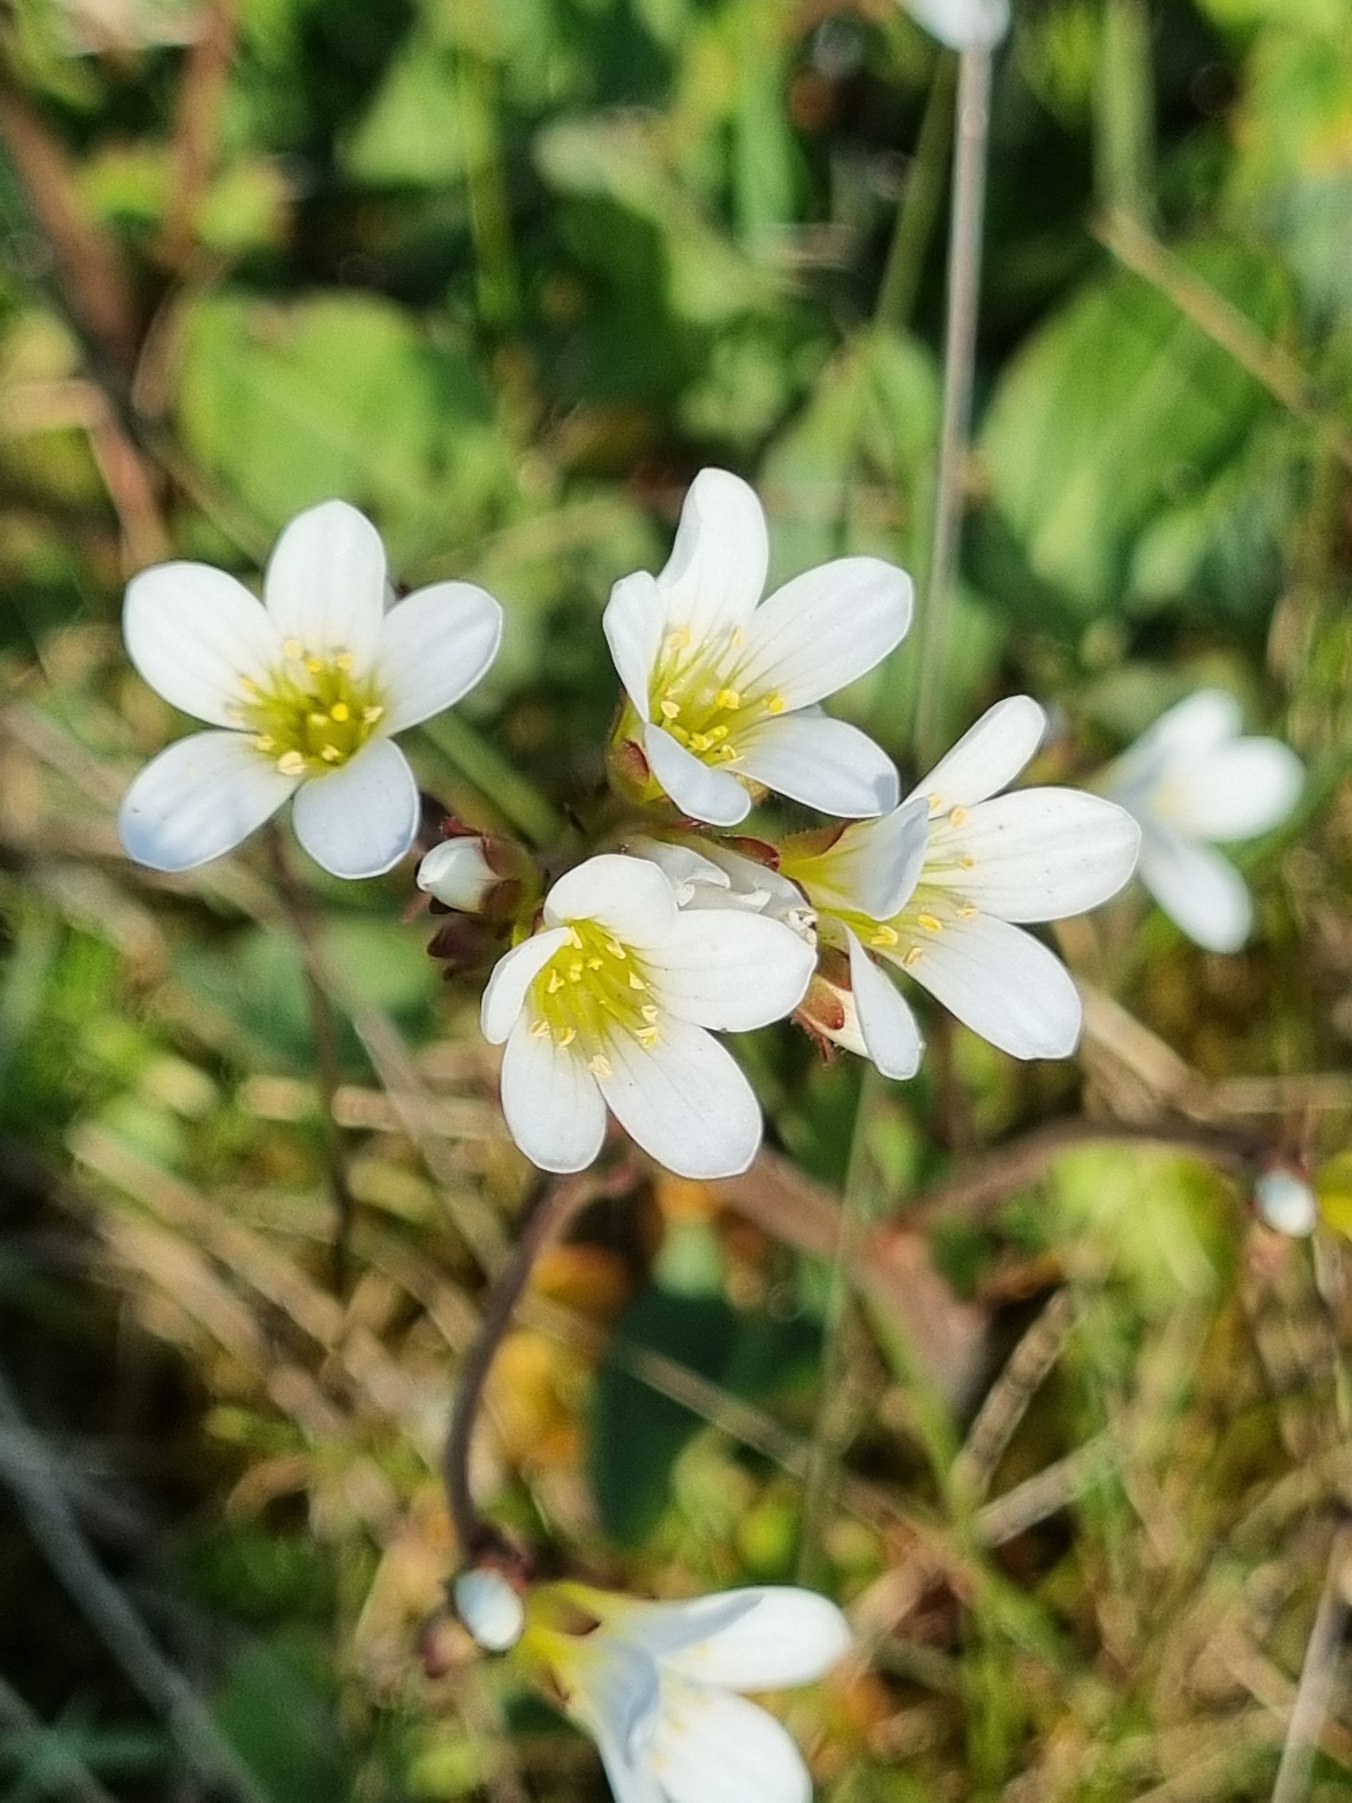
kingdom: Plantae
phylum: Tracheophyta
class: Magnoliopsida
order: Saxifragales
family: Saxifragaceae
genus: Saxifraga
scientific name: Saxifraga granulata
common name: Kornet stenbræk
